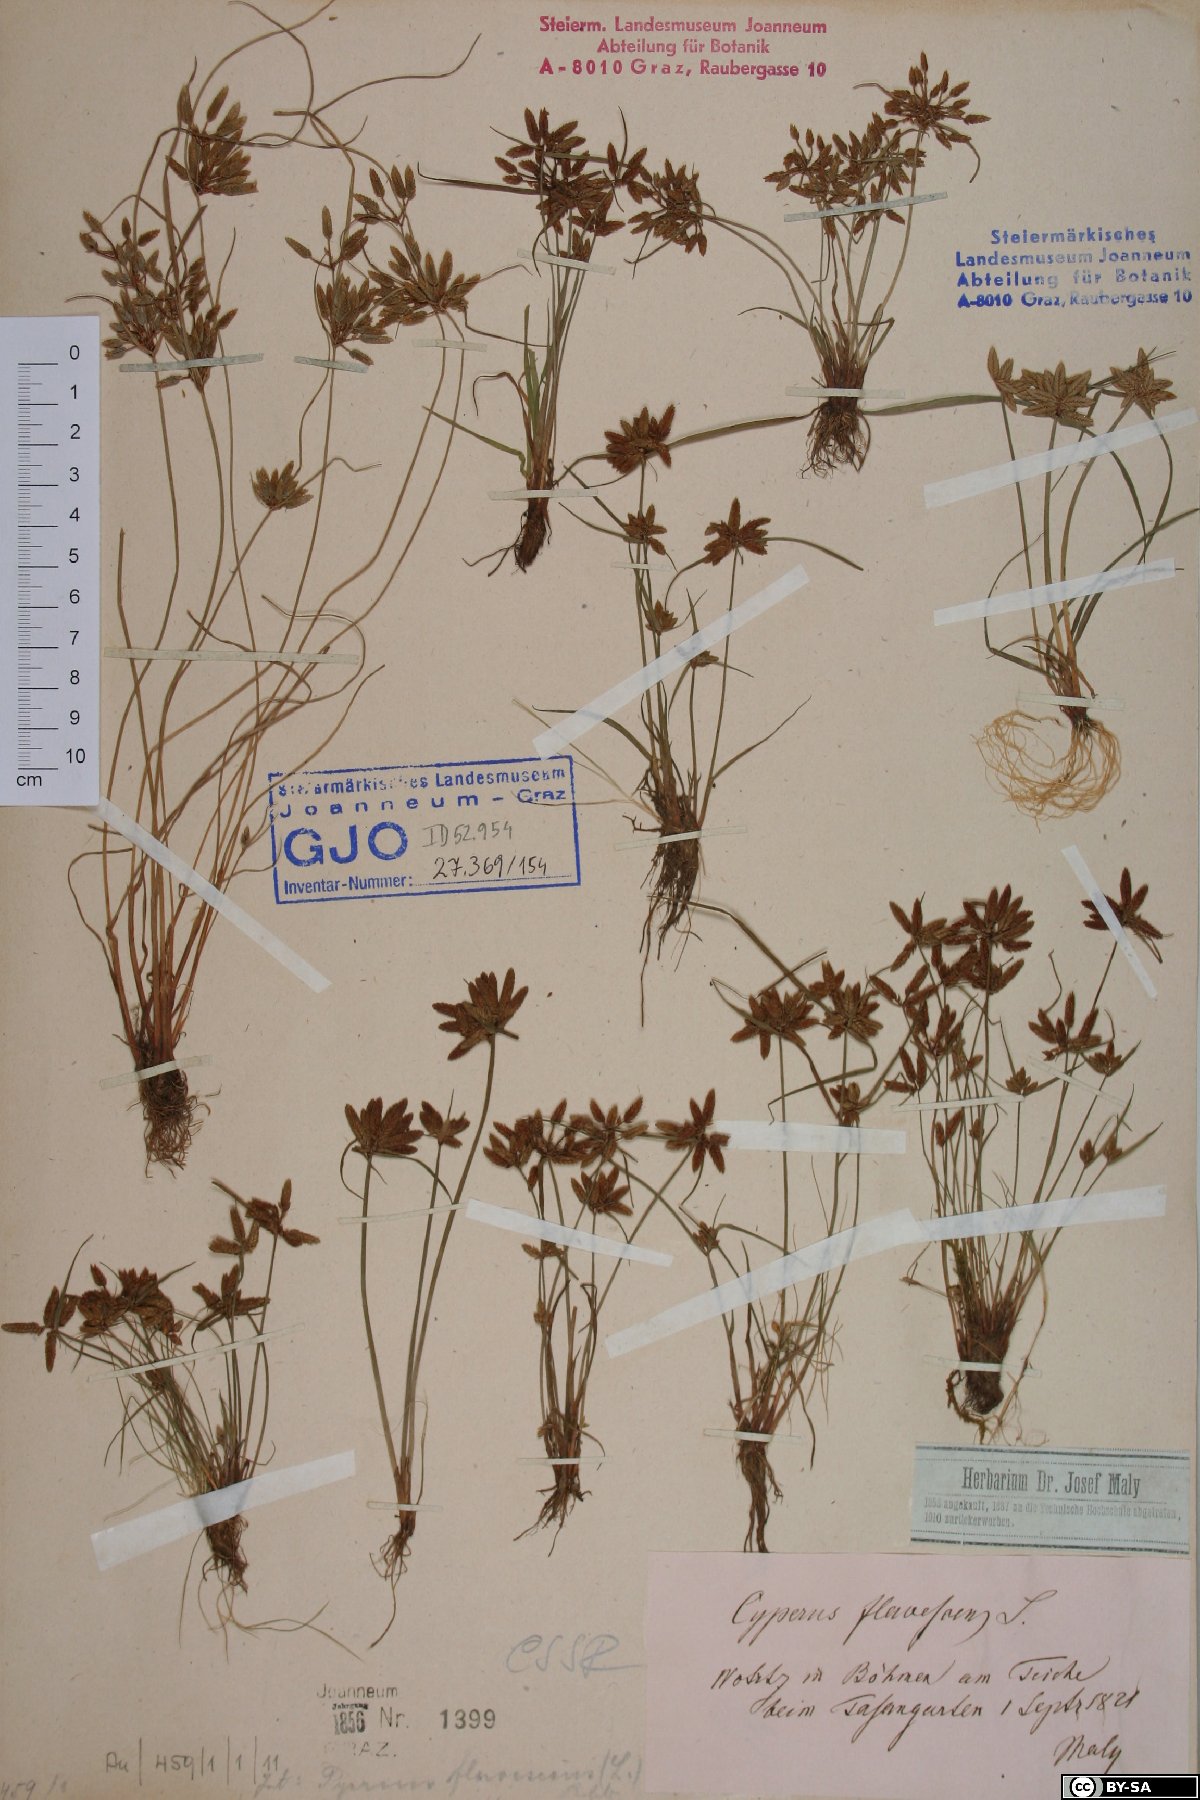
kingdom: Plantae
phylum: Tracheophyta
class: Liliopsida
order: Poales
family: Cyperaceae
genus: Cyperus
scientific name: Cyperus flavescens
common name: Yellow galingale
